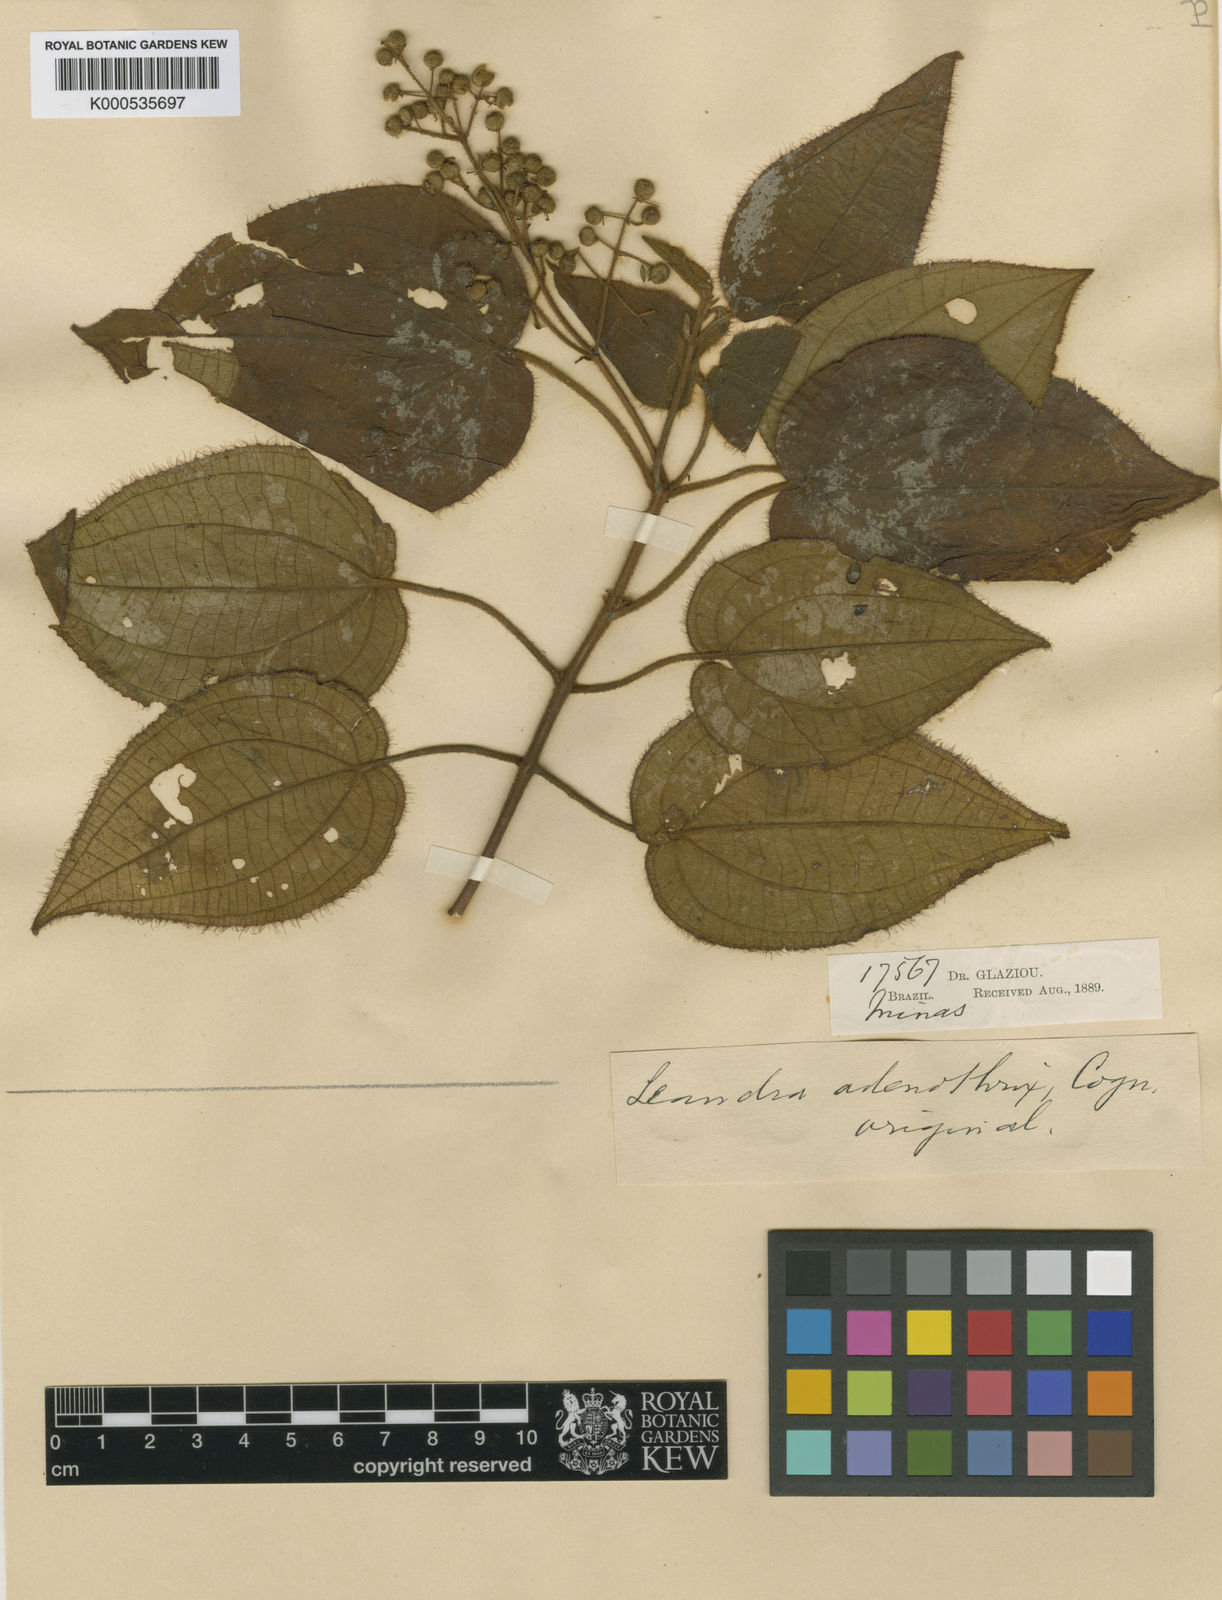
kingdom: Plantae
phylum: Tracheophyta
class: Magnoliopsida
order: Myrtales
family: Melastomataceae
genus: Miconia
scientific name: Miconia adenothrix
